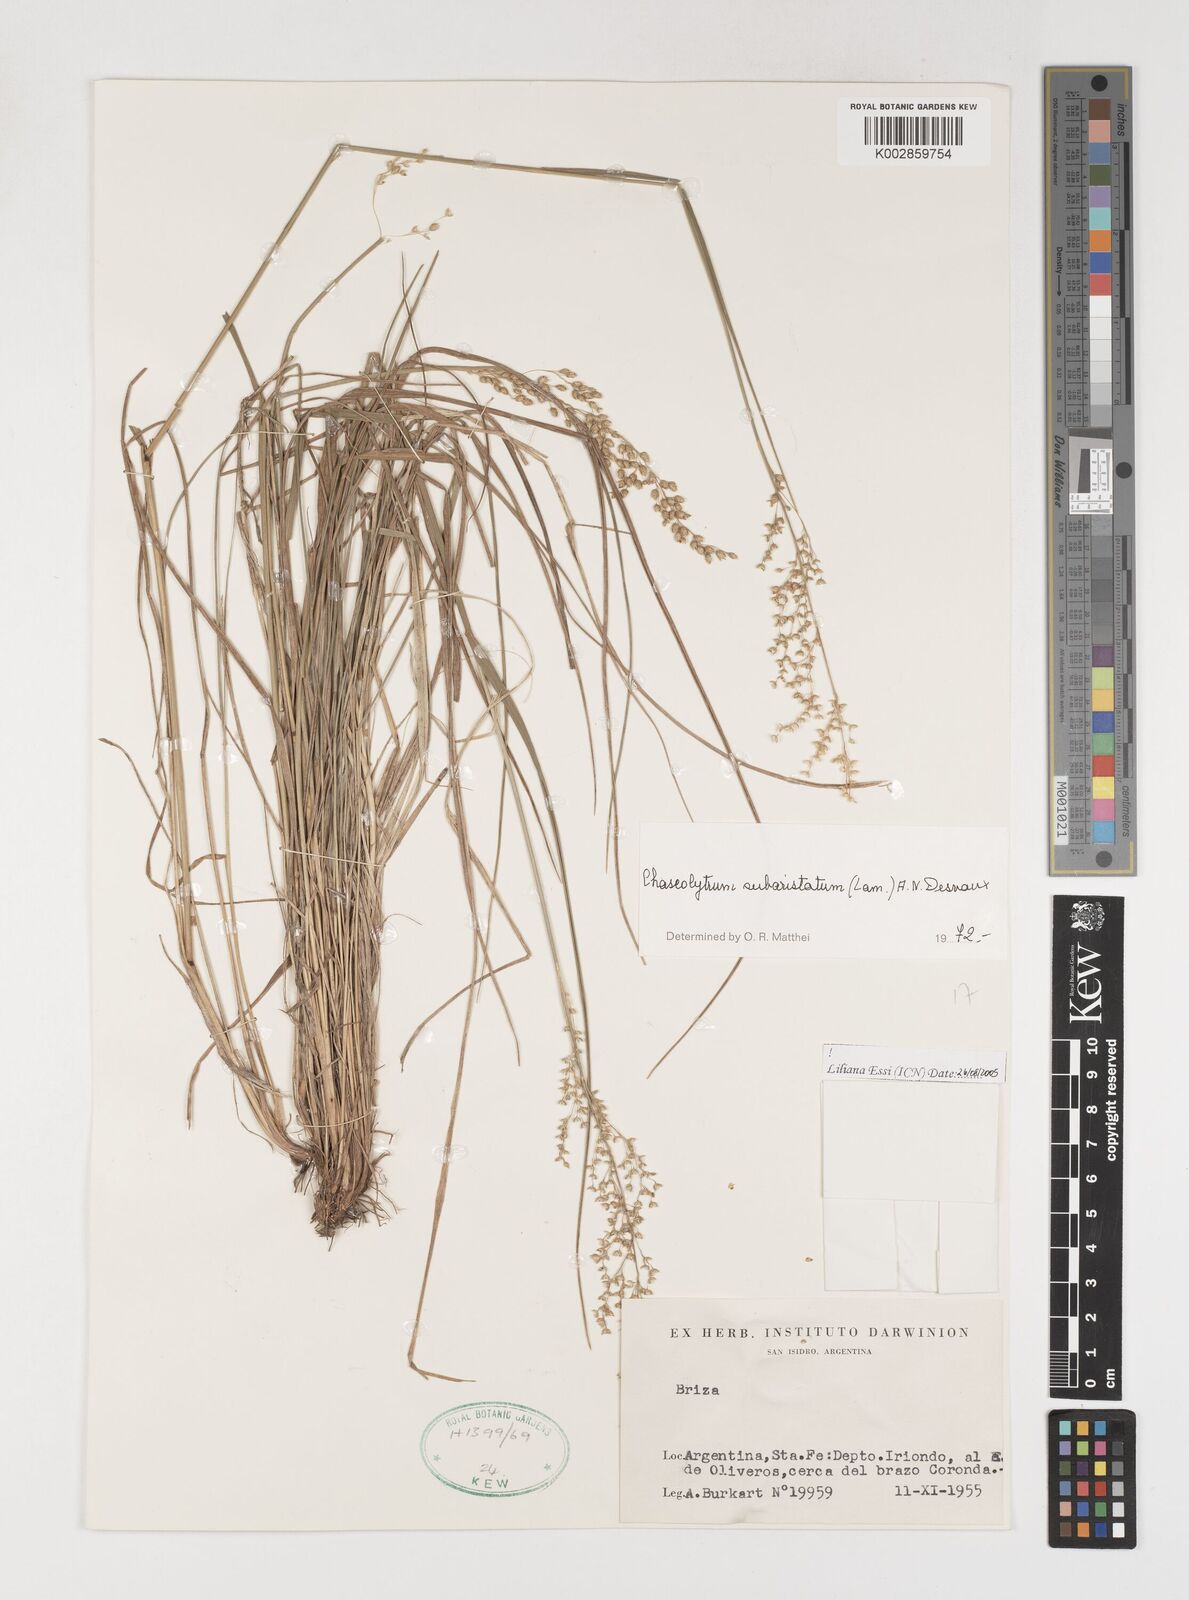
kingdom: Plantae
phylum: Tracheophyta
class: Liliopsida
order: Poales
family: Poaceae
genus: Chascolytrum
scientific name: Chascolytrum subaristatum
